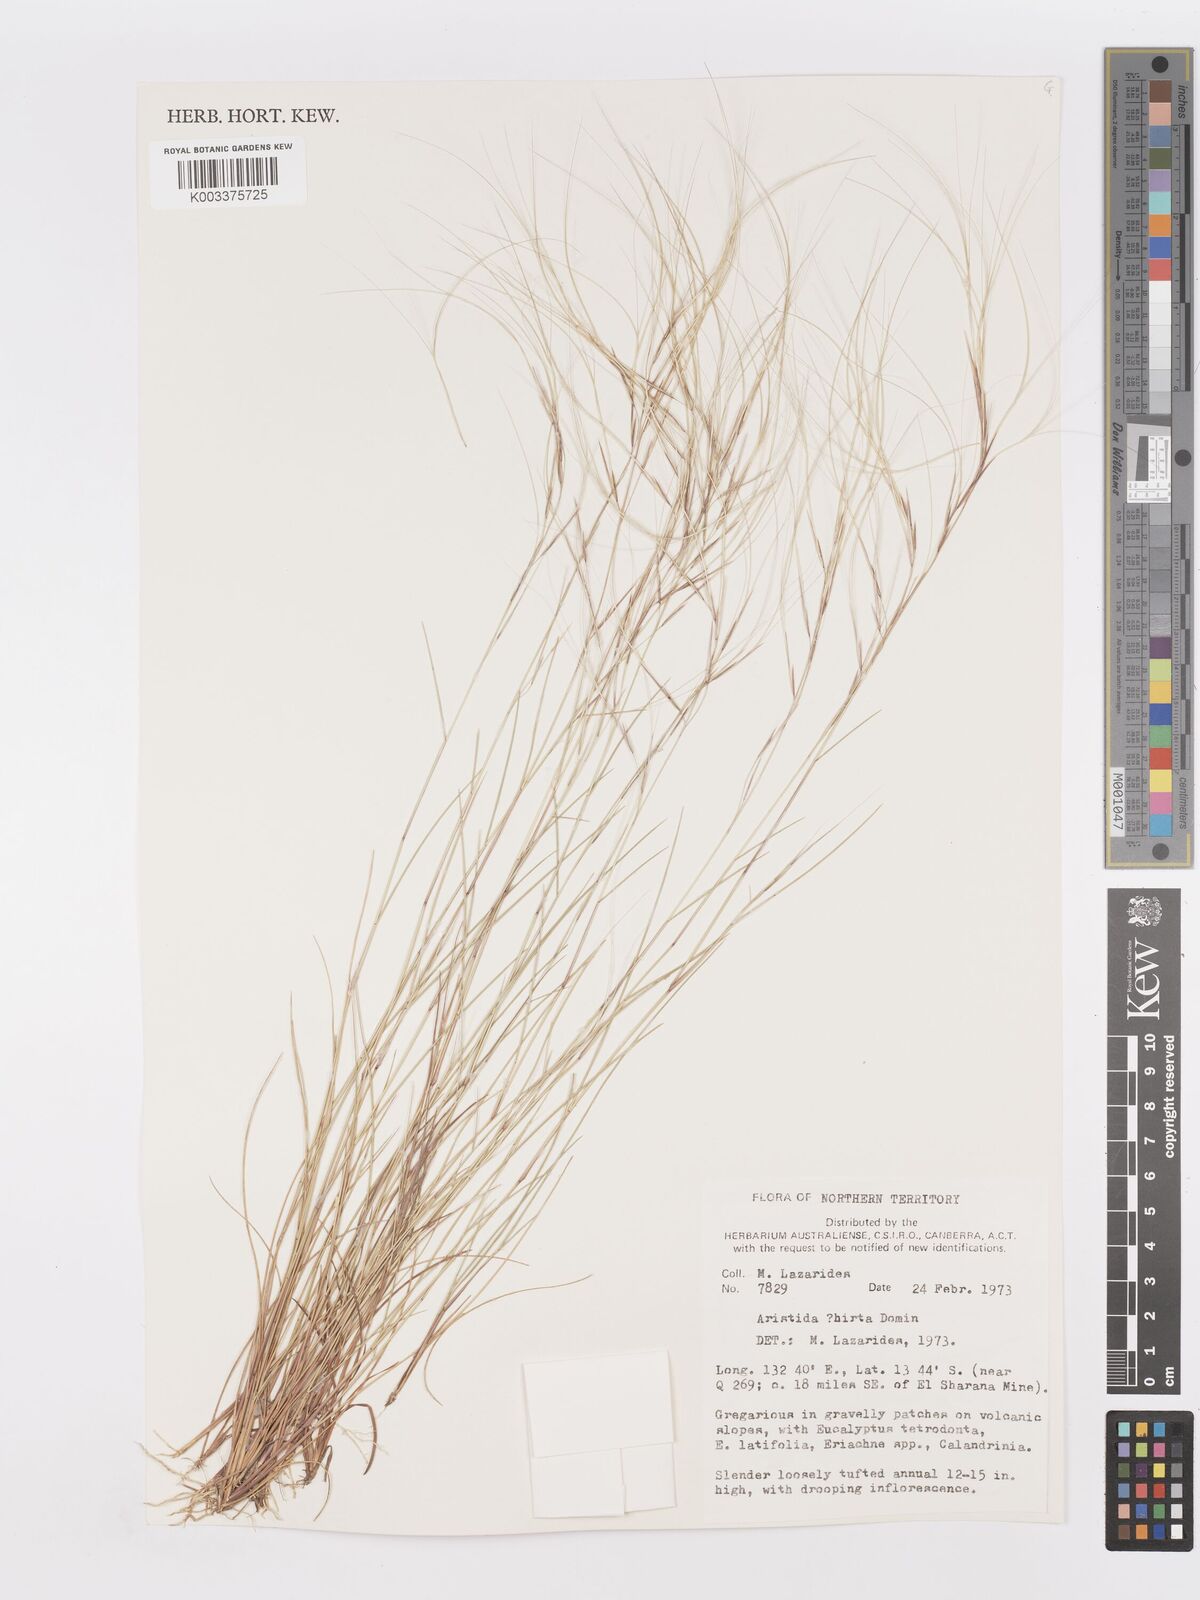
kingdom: Plantae
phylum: Tracheophyta
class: Liliopsida
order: Poales
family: Poaceae
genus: Aristida
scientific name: Aristida
